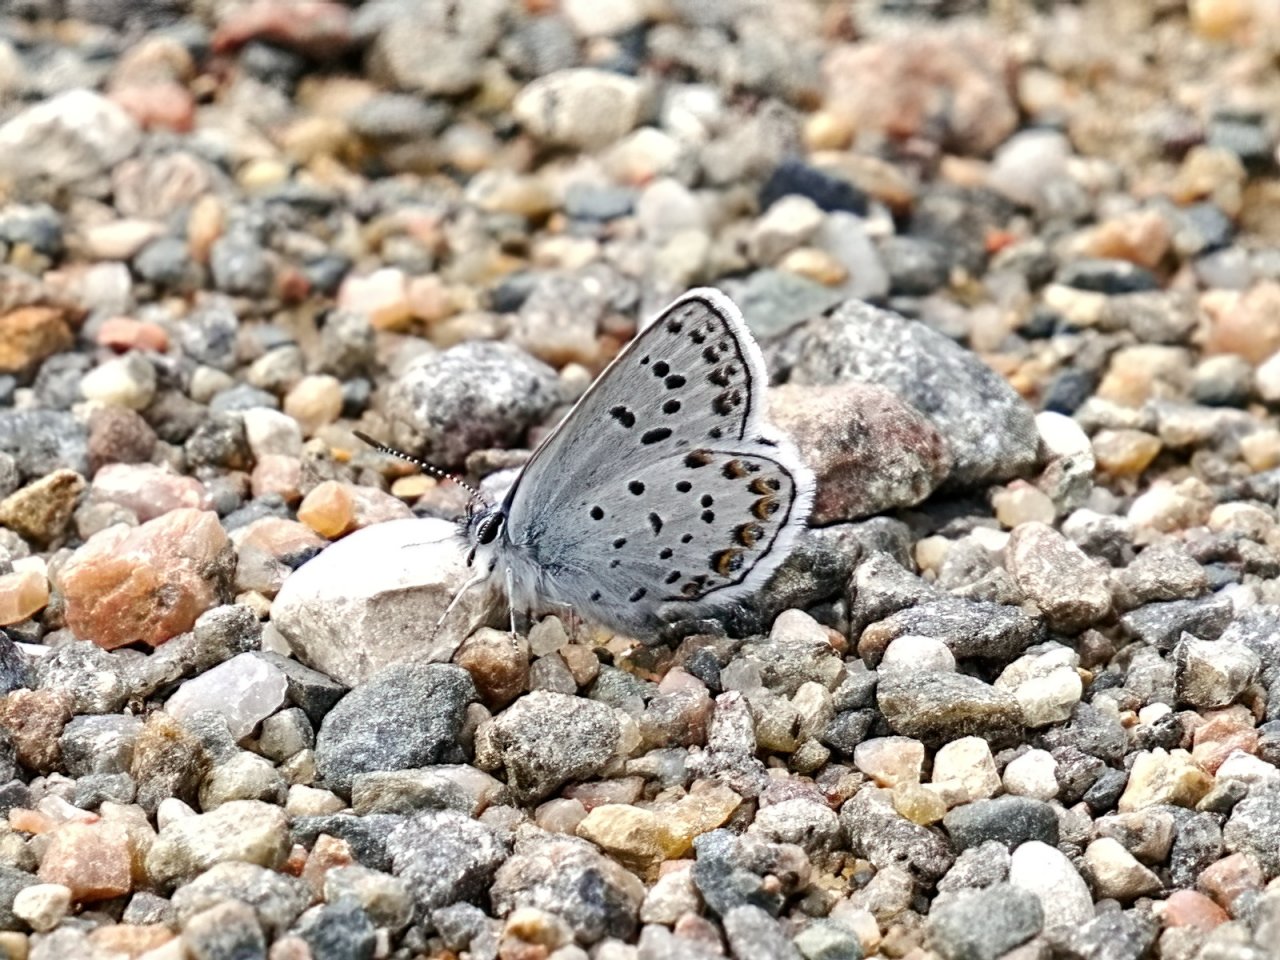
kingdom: Animalia
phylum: Arthropoda
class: Insecta
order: Lepidoptera
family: Lycaenidae
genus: Lycaeides
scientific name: Lycaeides idas
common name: Northern Blue
